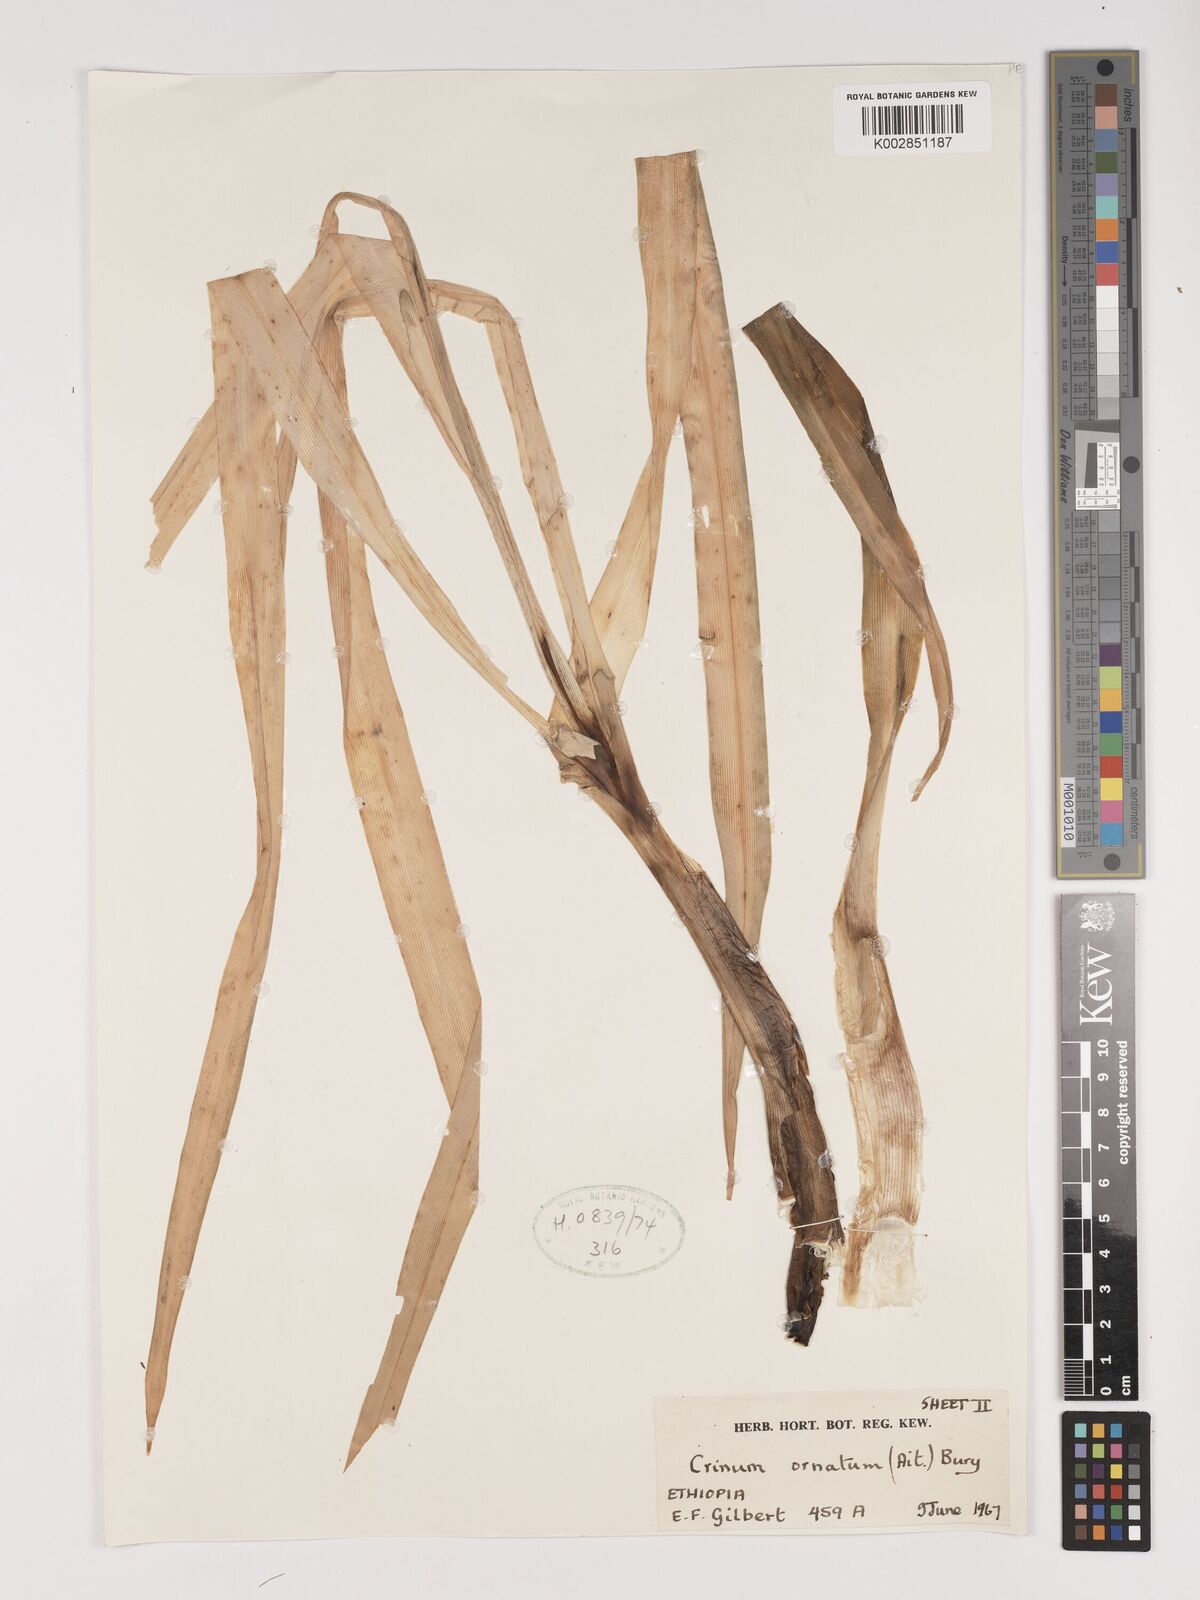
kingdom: Plantae
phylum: Tracheophyta
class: Liliopsida
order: Asparagales
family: Amaryllidaceae
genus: Crinum
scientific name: Crinum abyssinicum
